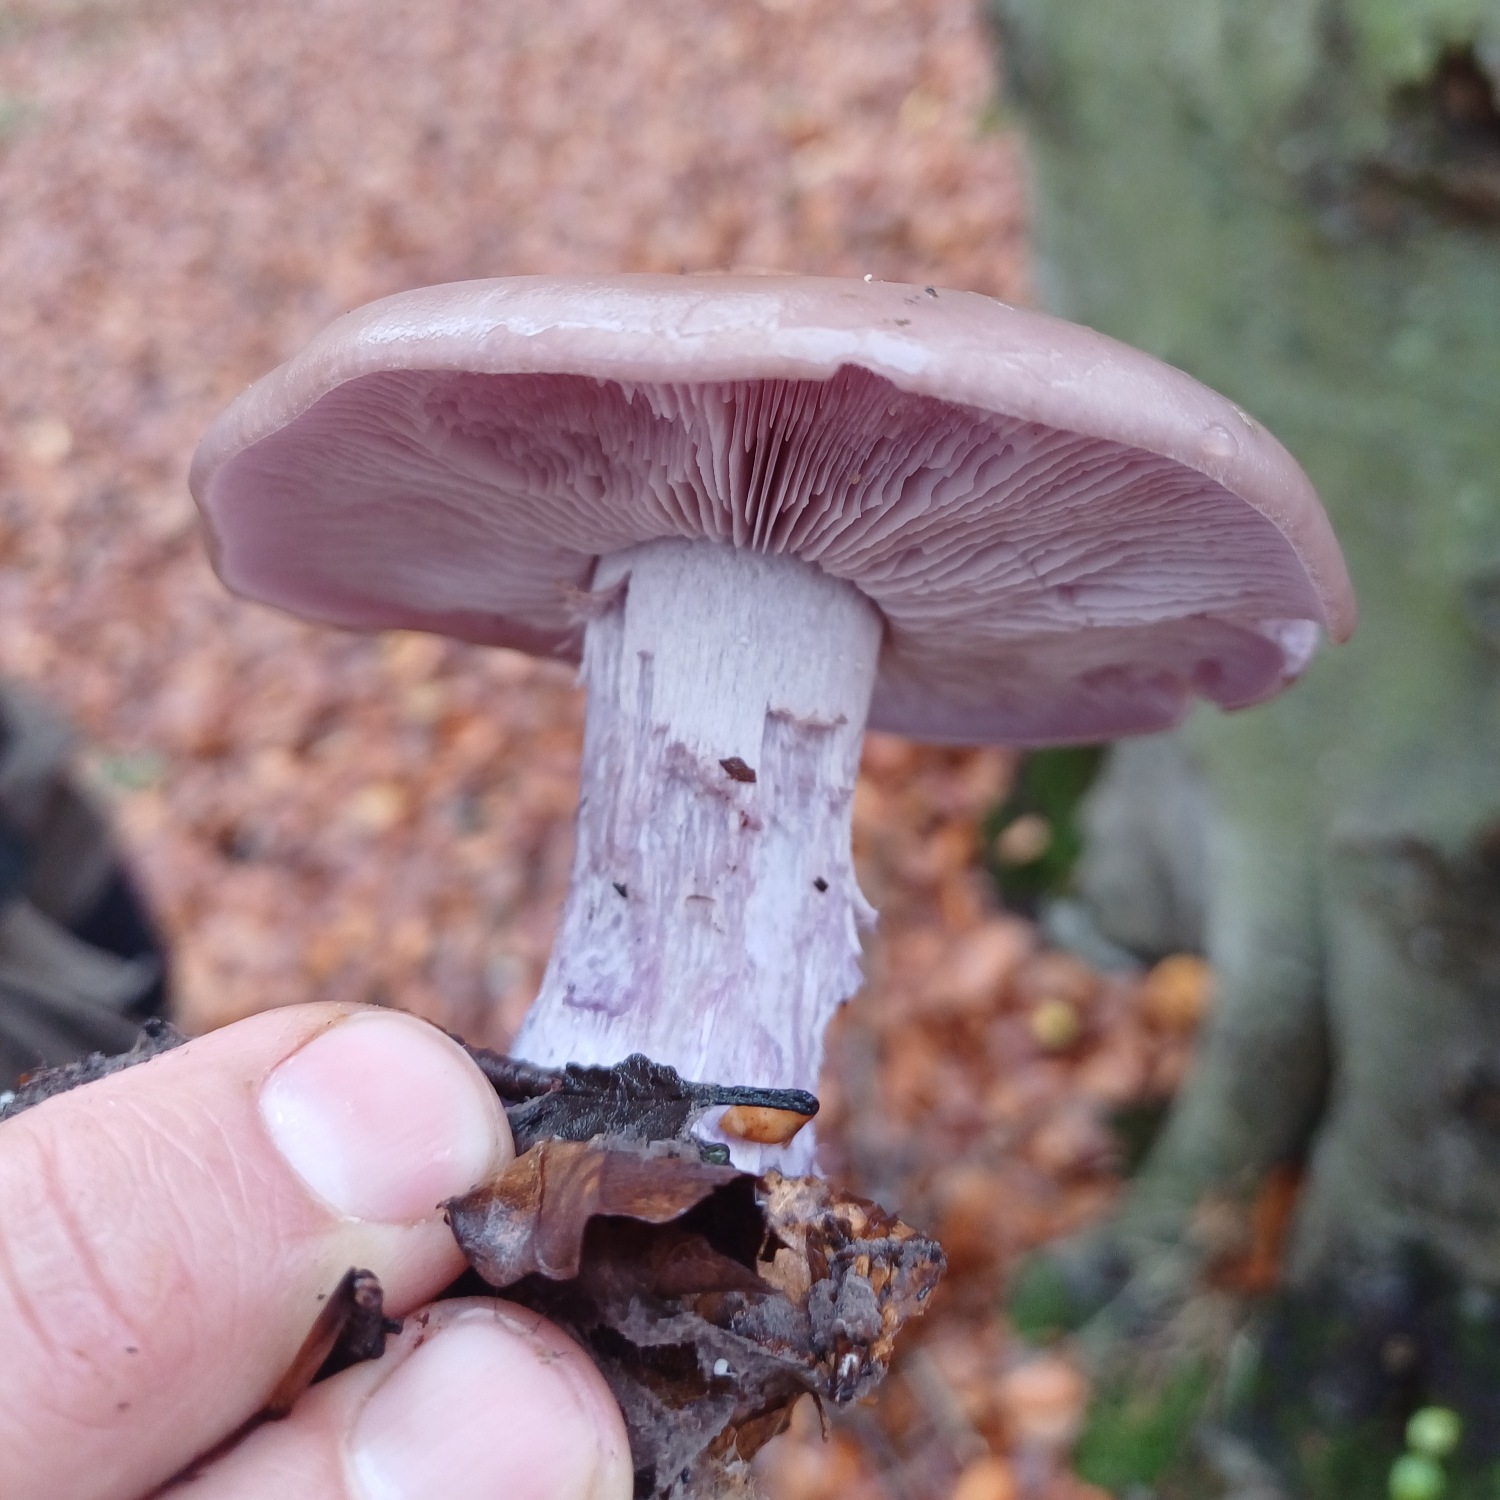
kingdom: Fungi
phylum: Basidiomycota
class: Agaricomycetes
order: Agaricales
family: Tricholomataceae
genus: Lepista
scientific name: Lepista nuda
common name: Violet hekseringshat
